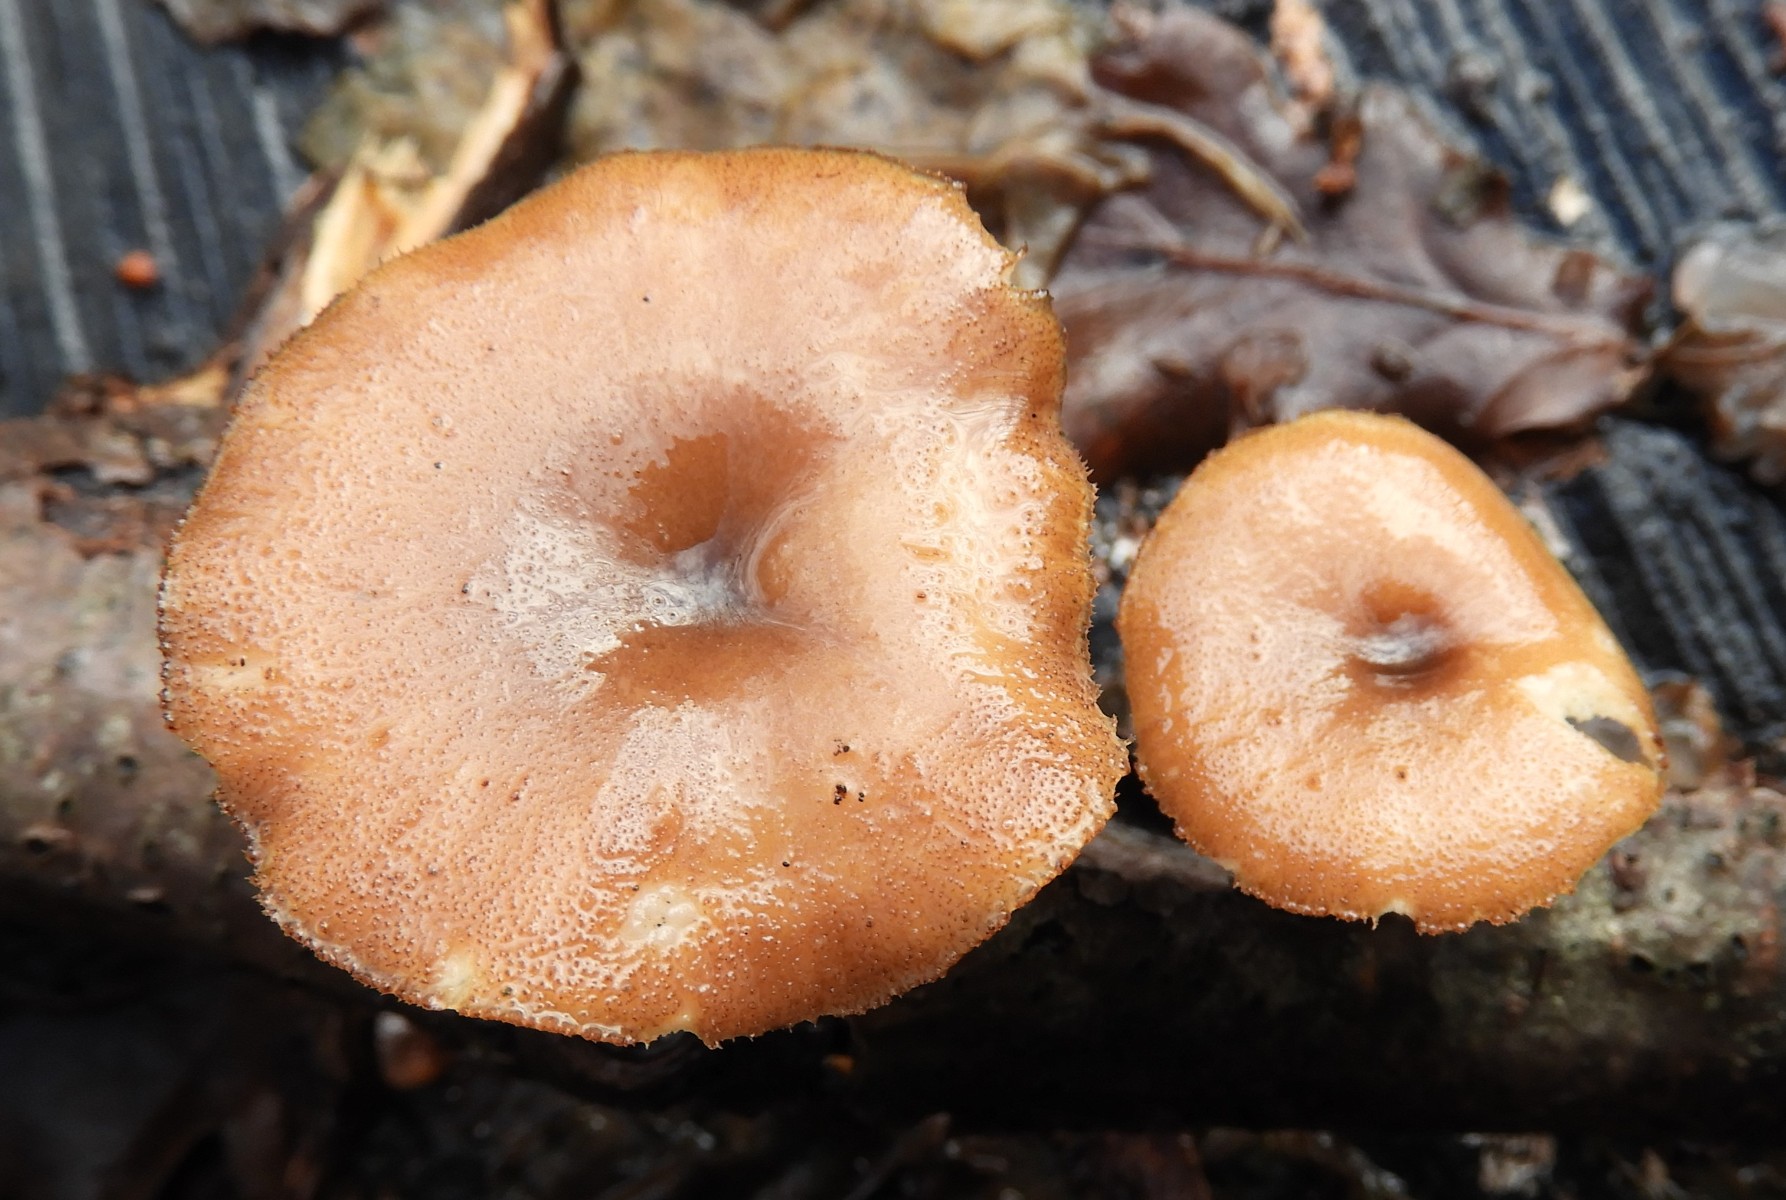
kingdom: Fungi
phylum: Basidiomycota
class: Agaricomycetes
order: Polyporales
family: Polyporaceae
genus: Lentinus
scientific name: Lentinus brumalis
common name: vinter-stilkporesvamp
